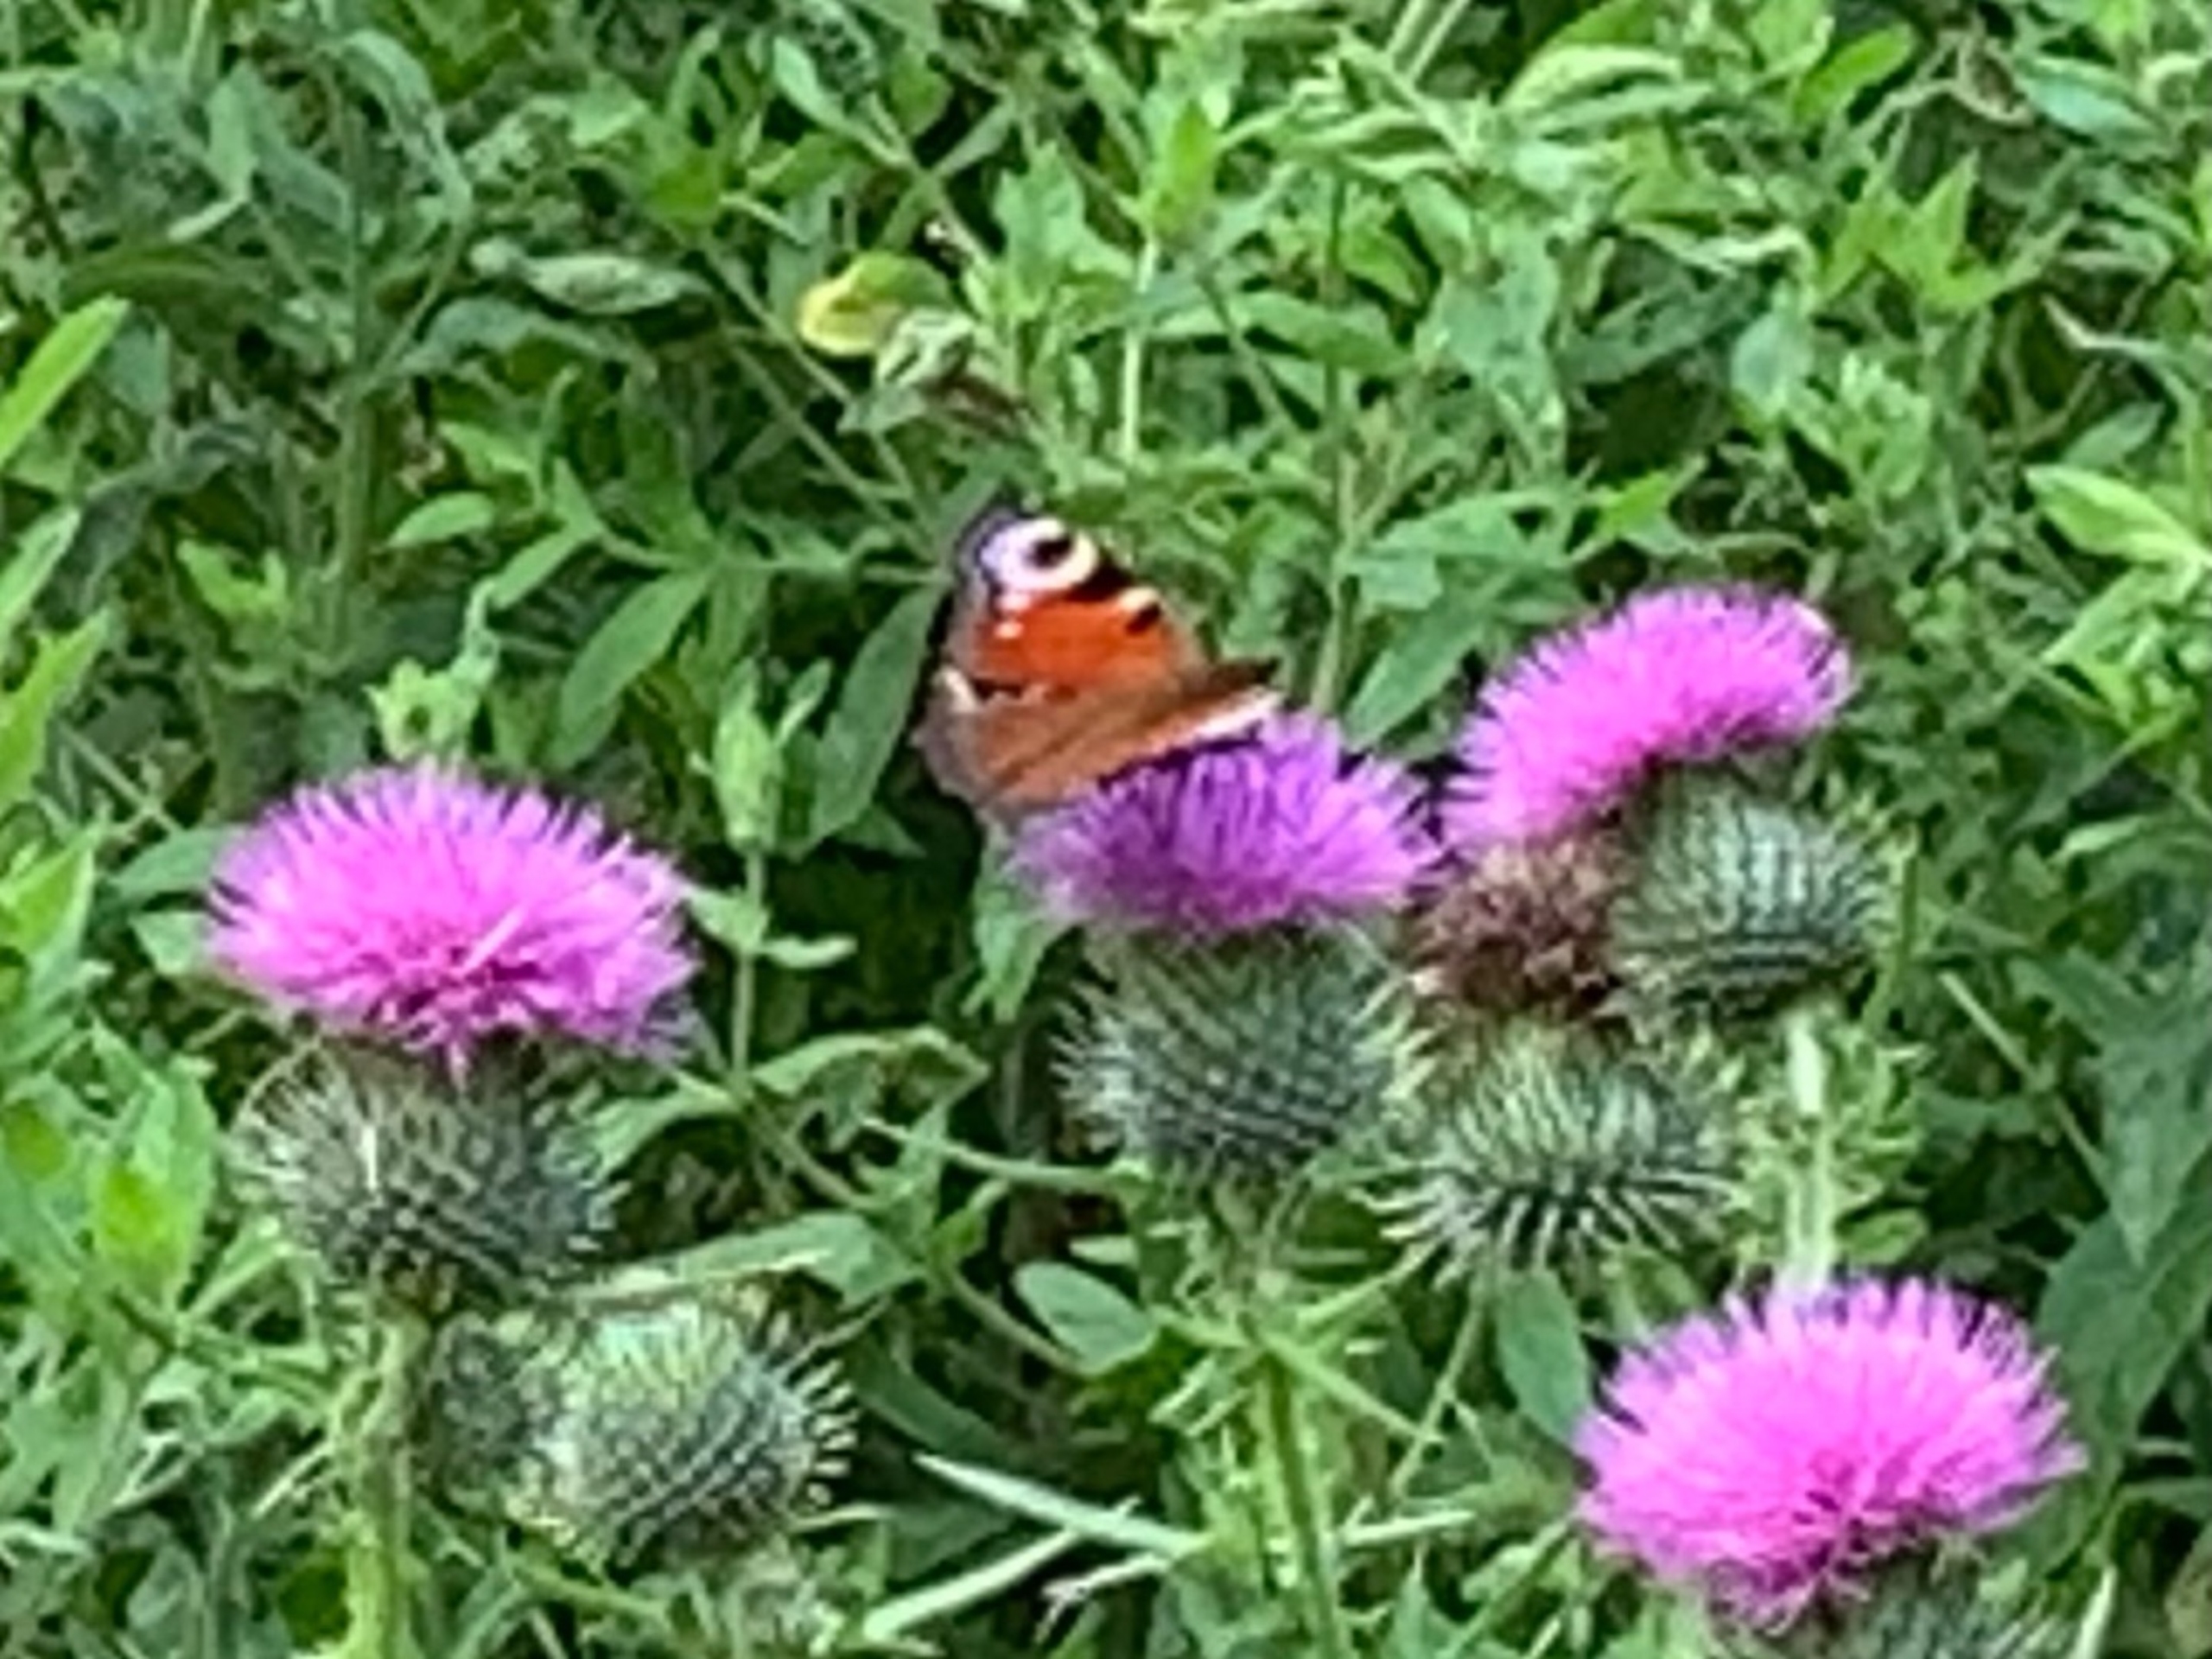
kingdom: Animalia
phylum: Arthropoda
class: Insecta
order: Lepidoptera
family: Nymphalidae
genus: Aglais
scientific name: Aglais io
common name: Dagpåfugleøje
